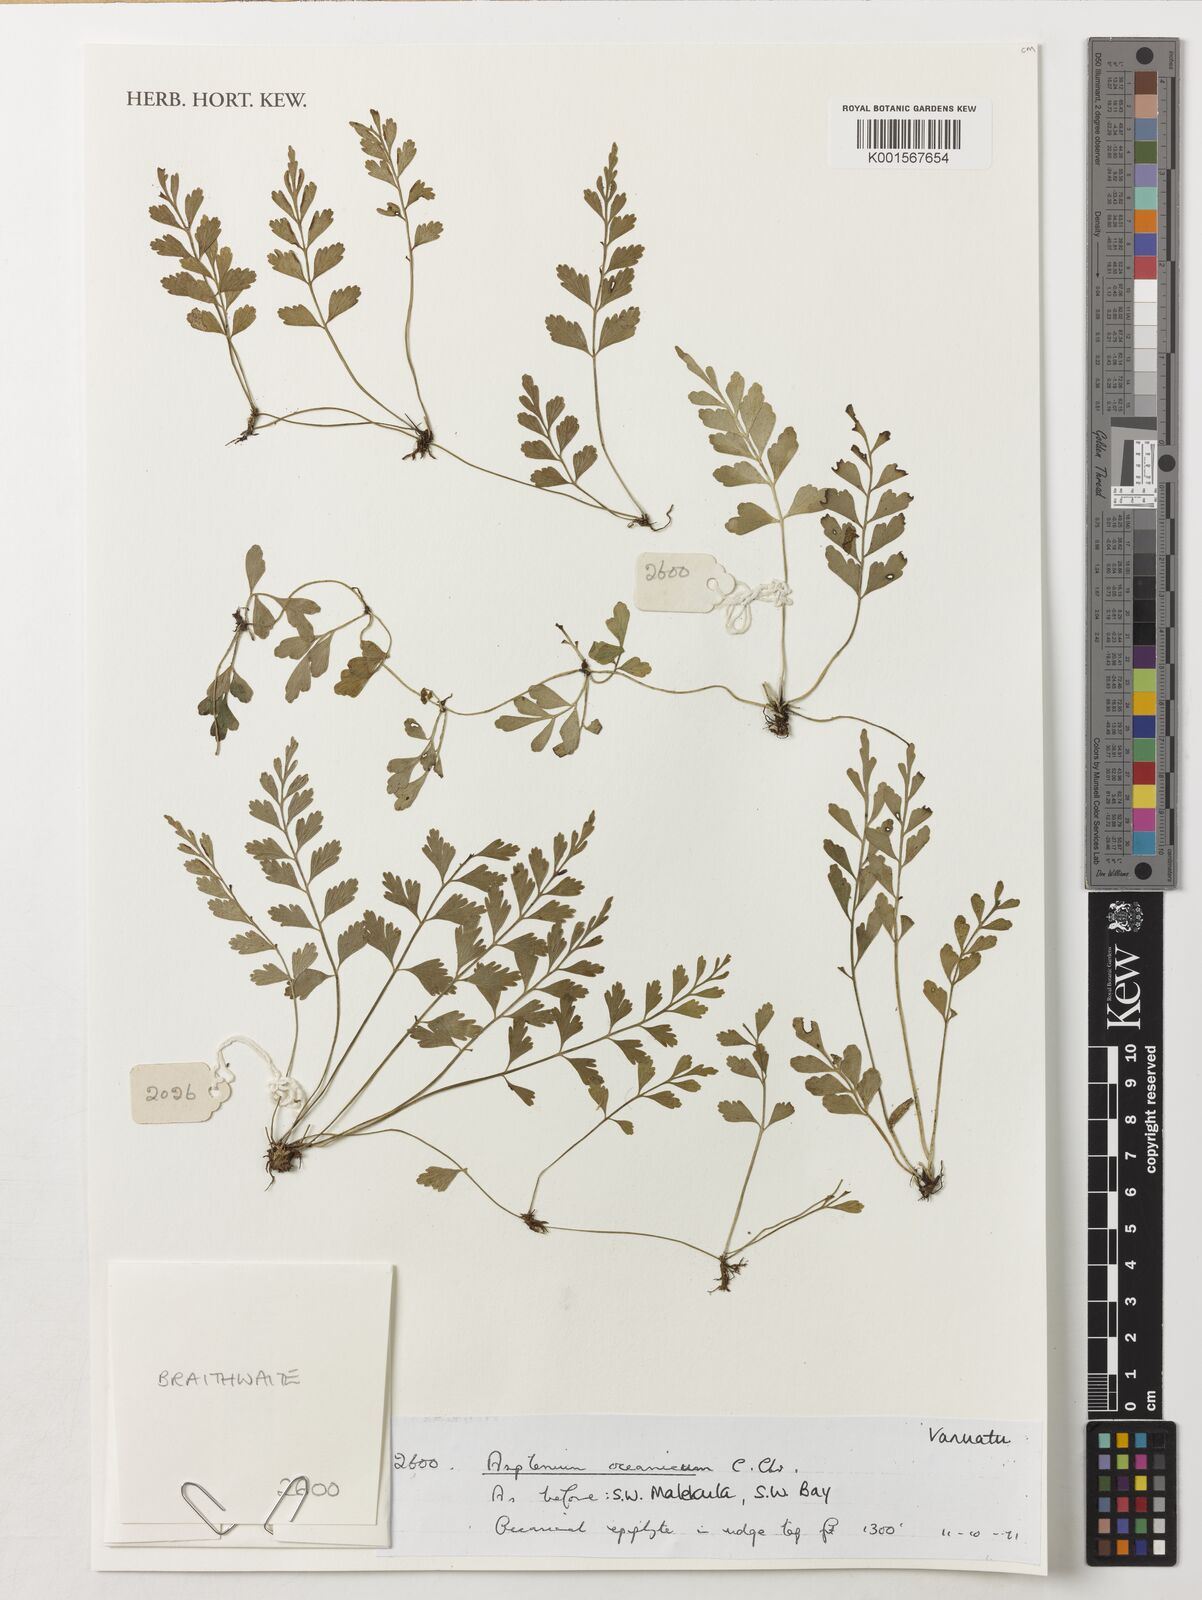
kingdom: Plantae
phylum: Tracheophyta
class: Polypodiopsida
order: Polypodiales
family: Aspleniaceae
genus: Asplenium
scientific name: Asplenium bipinnatifidum
